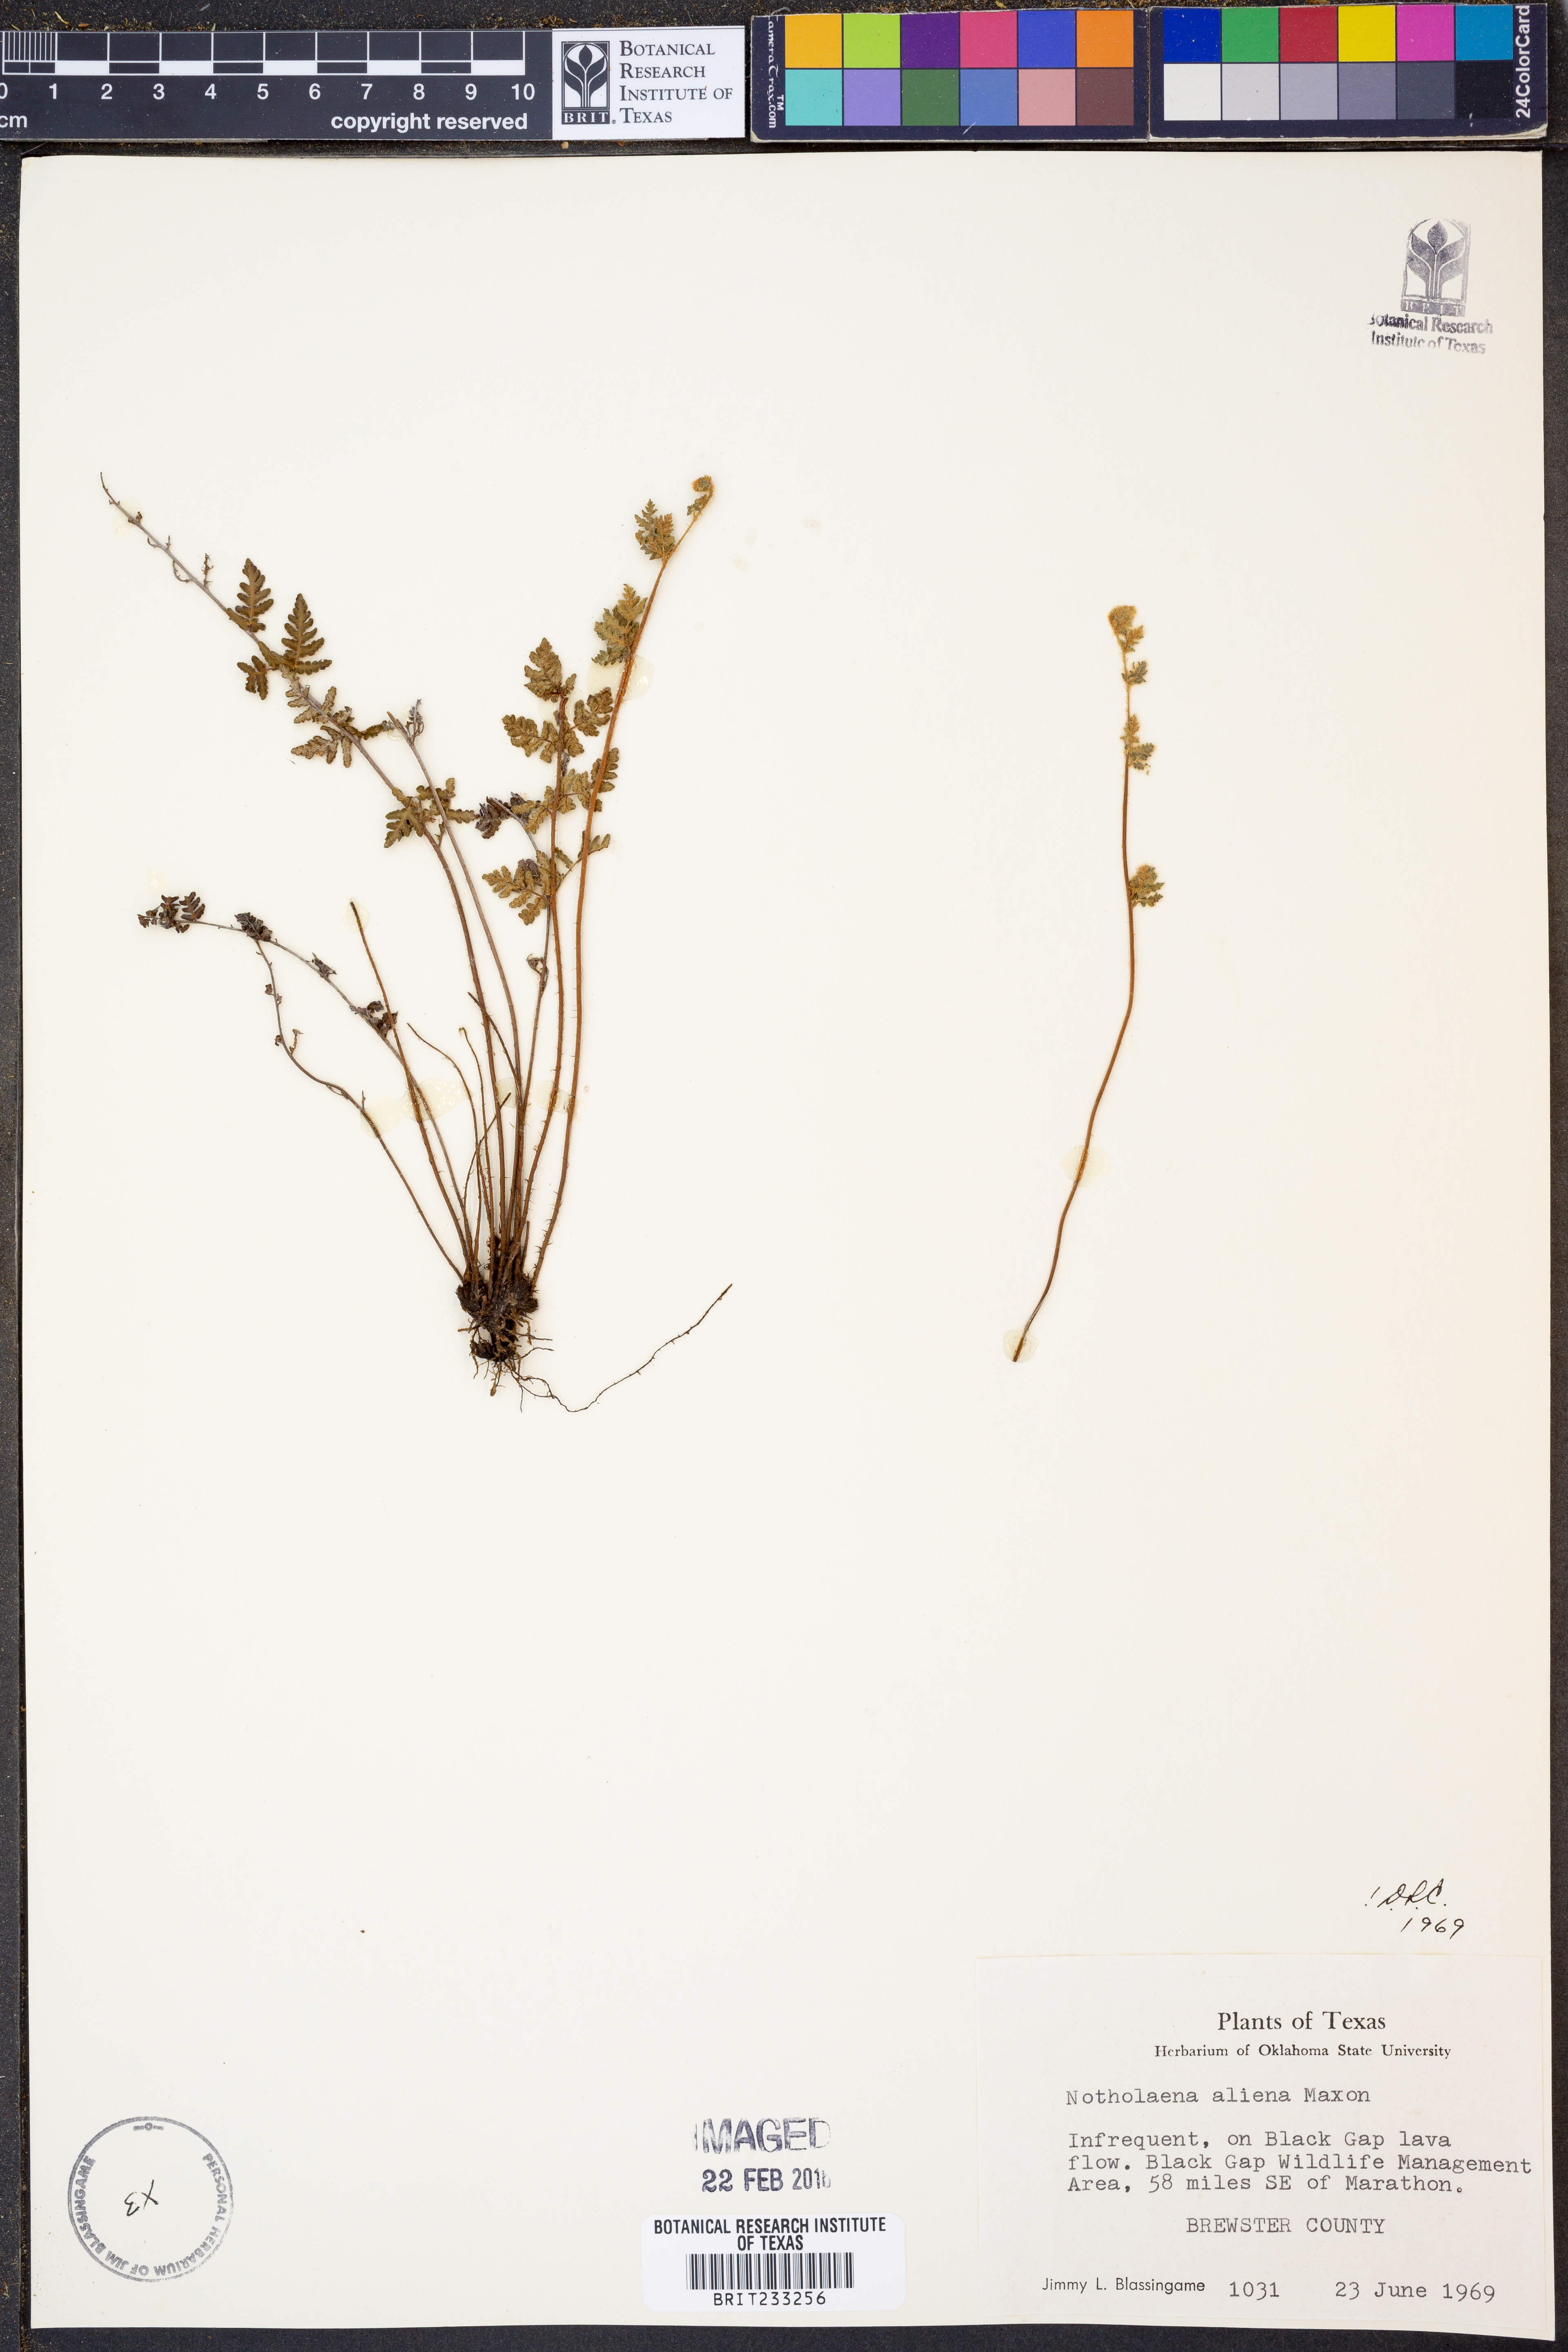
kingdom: Plantae
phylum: Tracheophyta
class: Polypodiopsida
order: Polypodiales
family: Pteridaceae
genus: Notholaena
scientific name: Notholaena aliena
